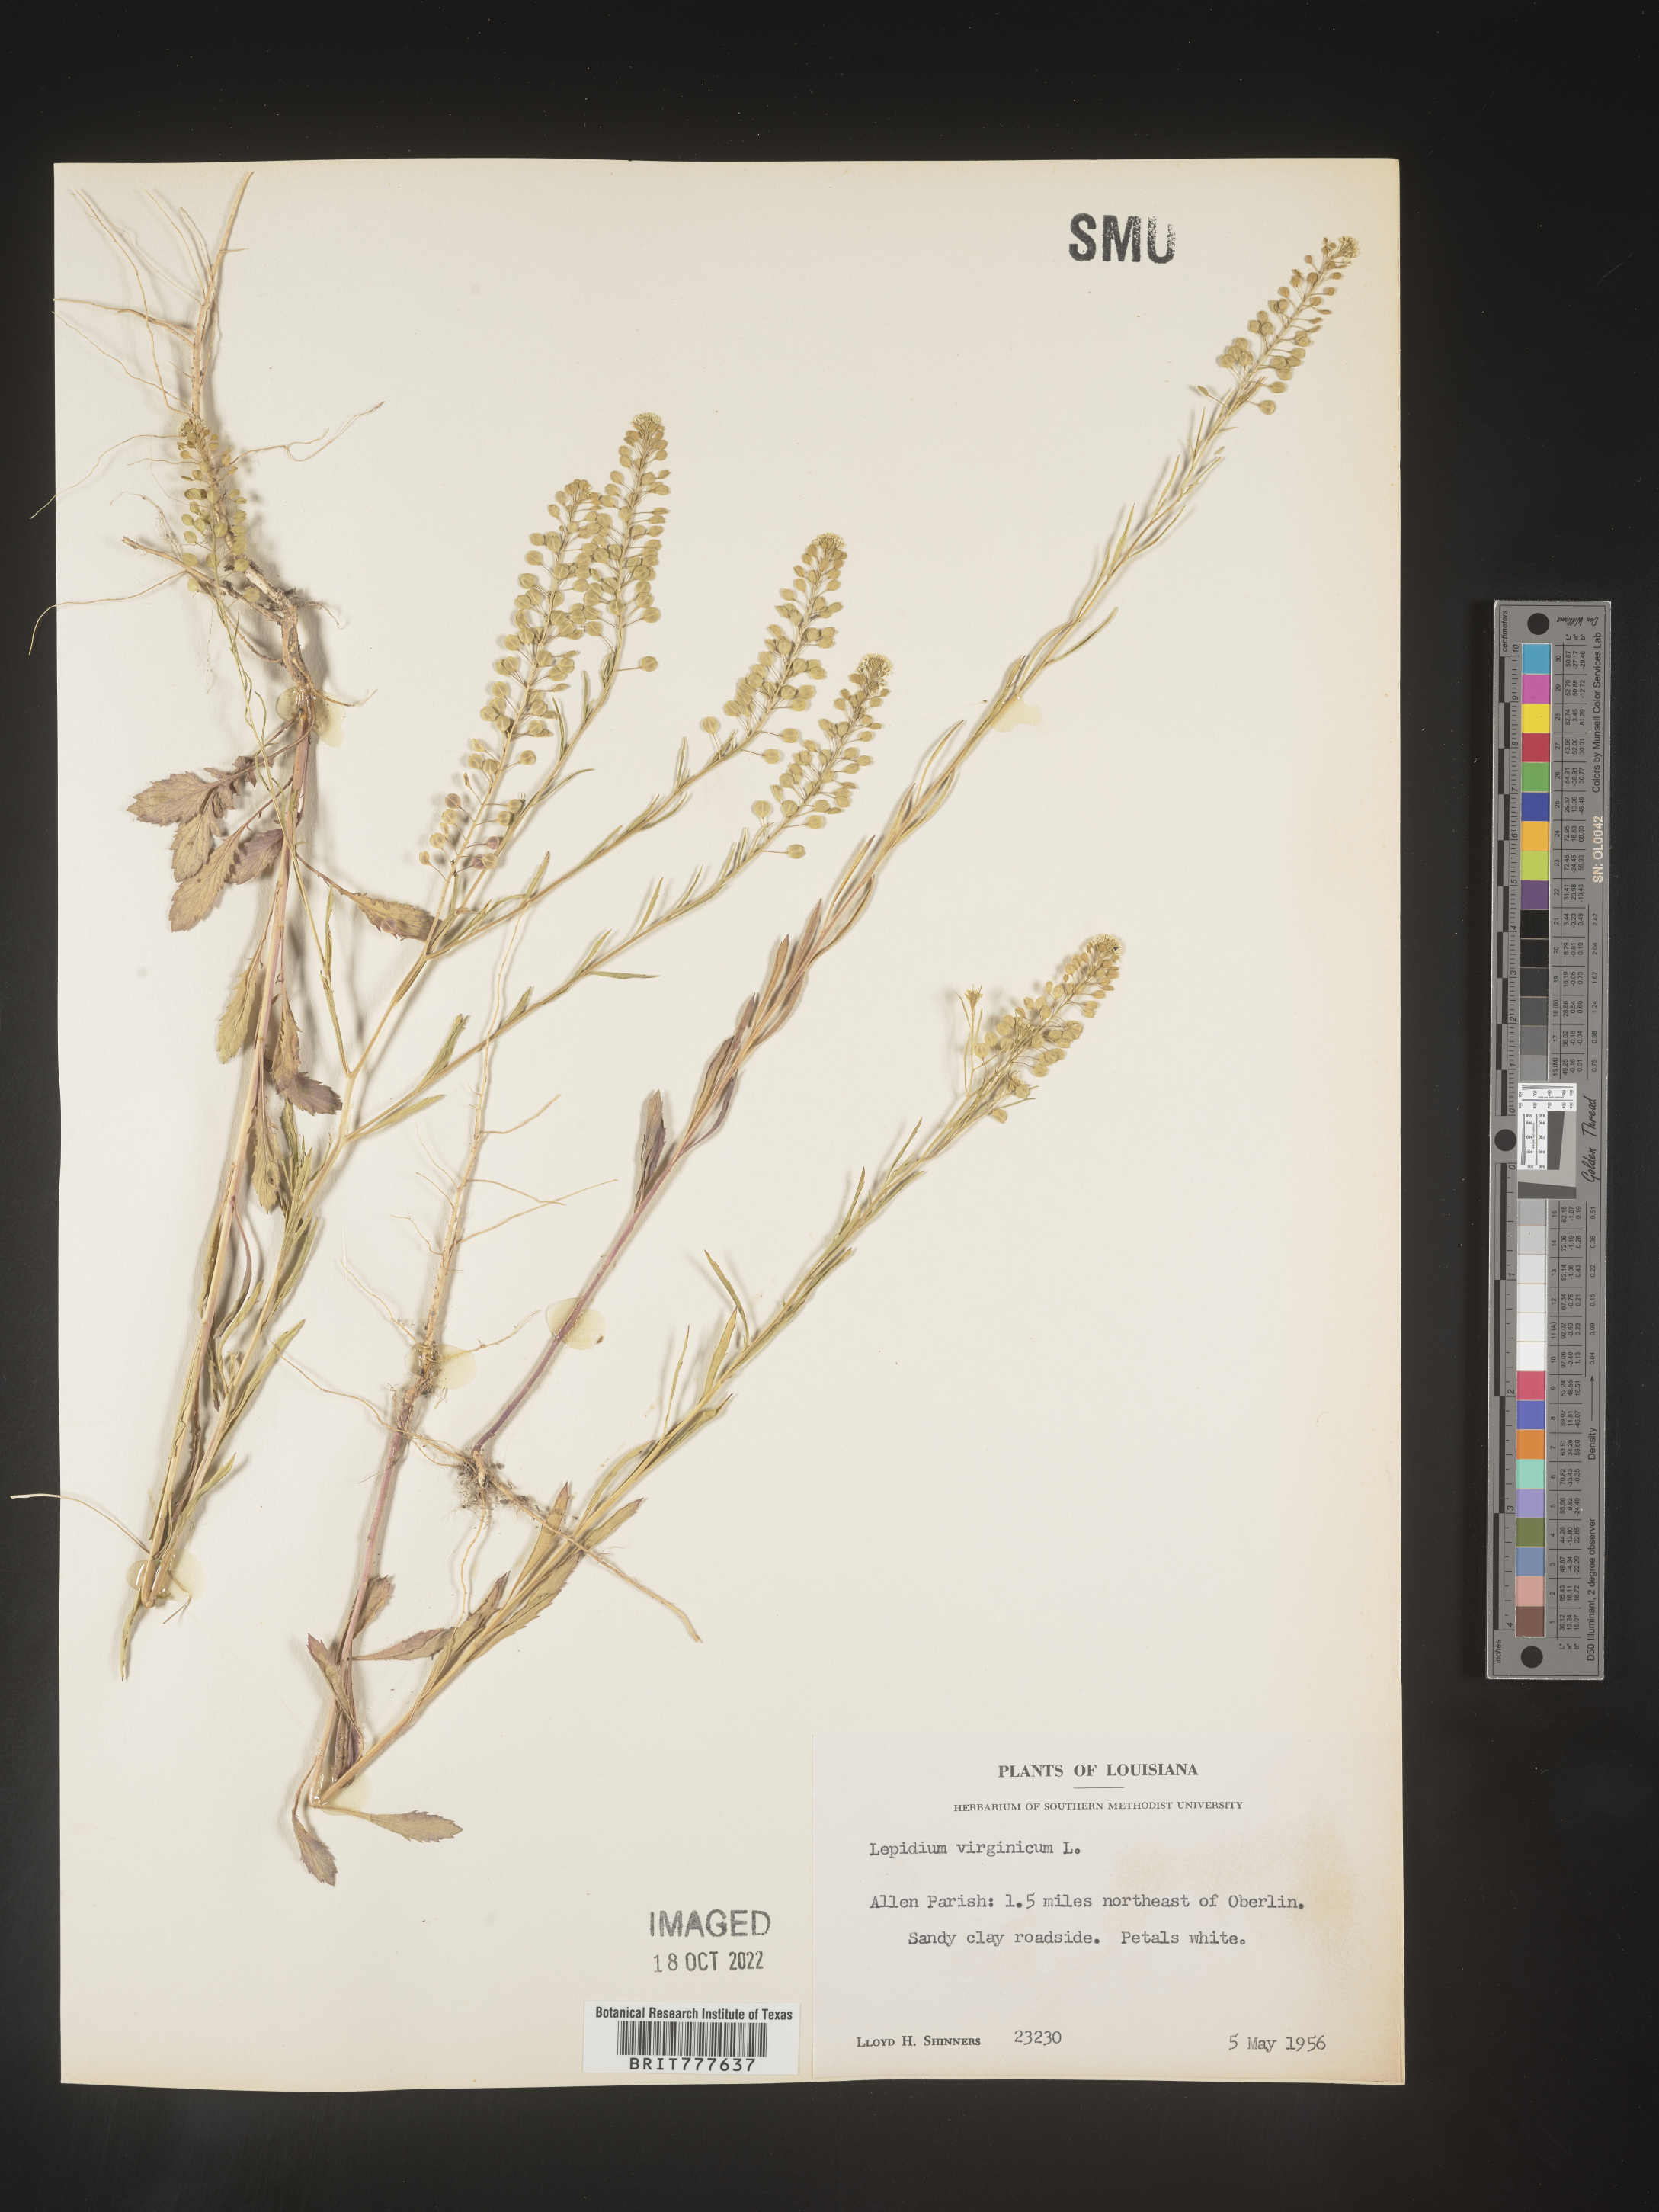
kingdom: Plantae
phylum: Tracheophyta
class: Magnoliopsida
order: Brassicales
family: Brassicaceae
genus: Lepidium
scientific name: Lepidium virginicum
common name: Least pepperwort
